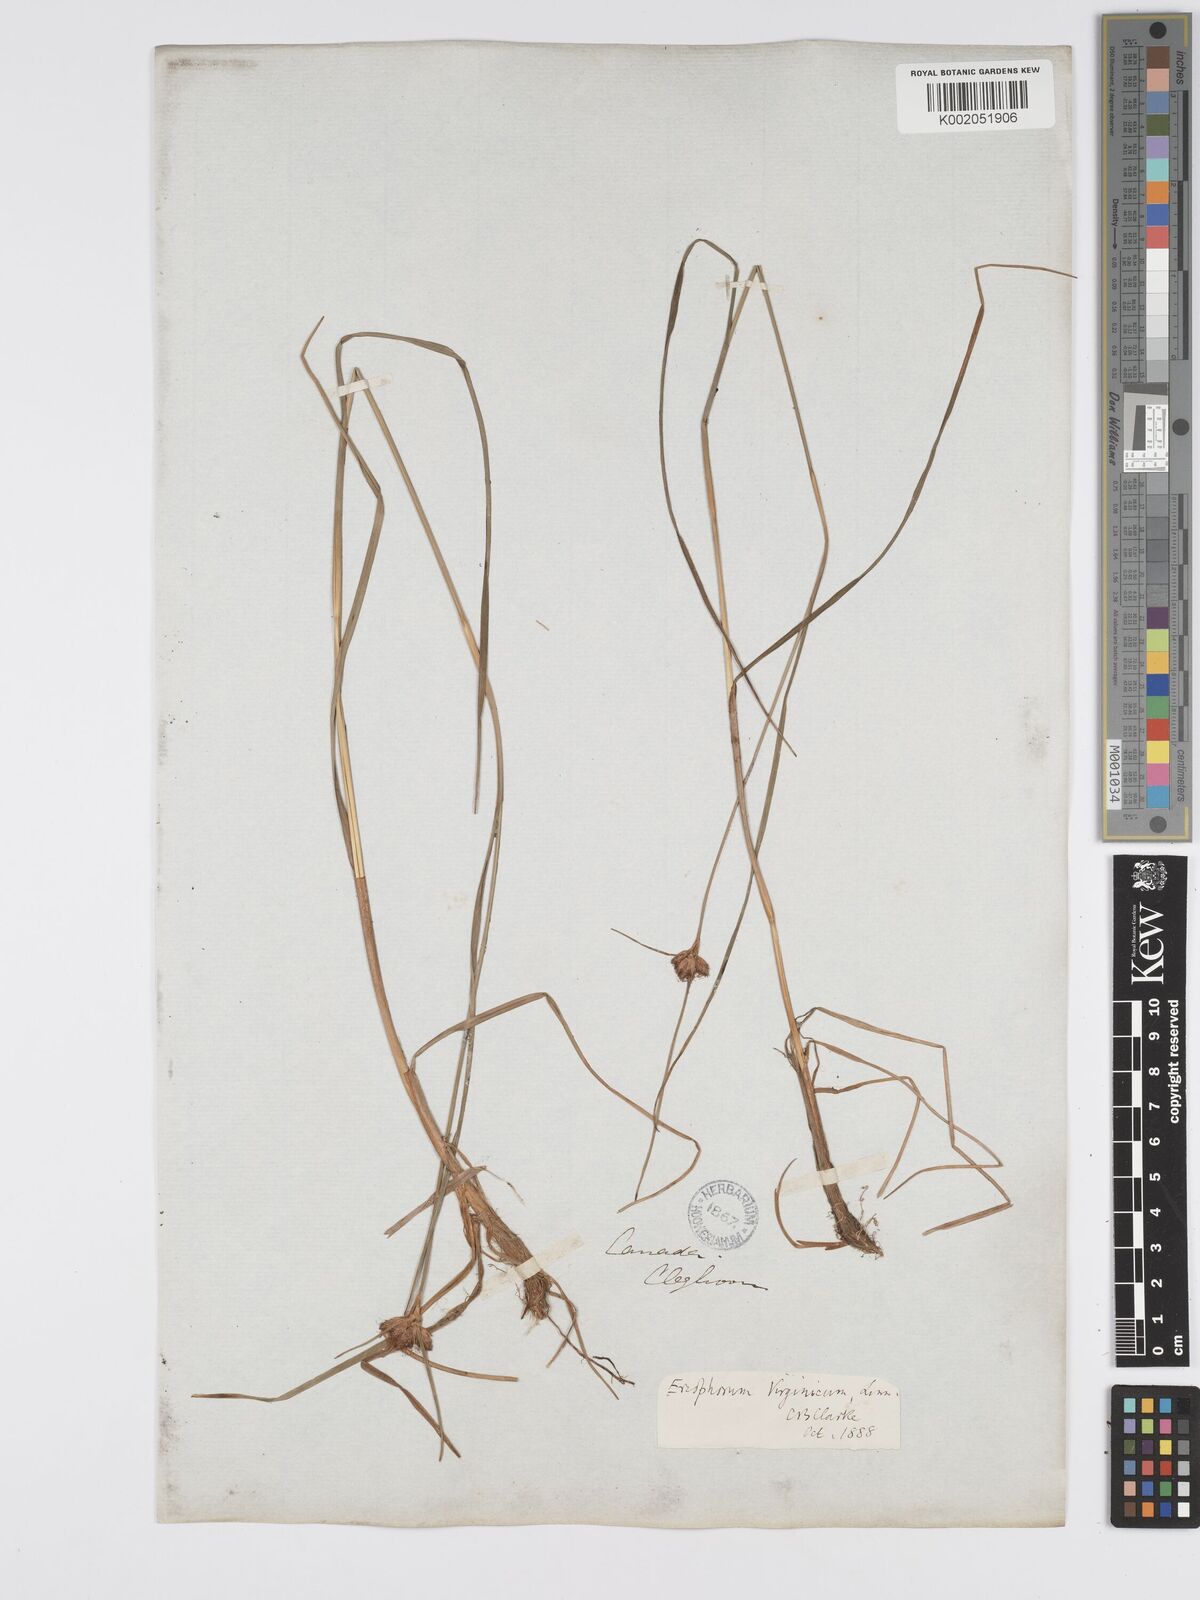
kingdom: Plantae
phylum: Tracheophyta
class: Liliopsida
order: Poales
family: Cyperaceae
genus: Eriophorum
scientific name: Eriophorum virginicum
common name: Tawny cottongrass
